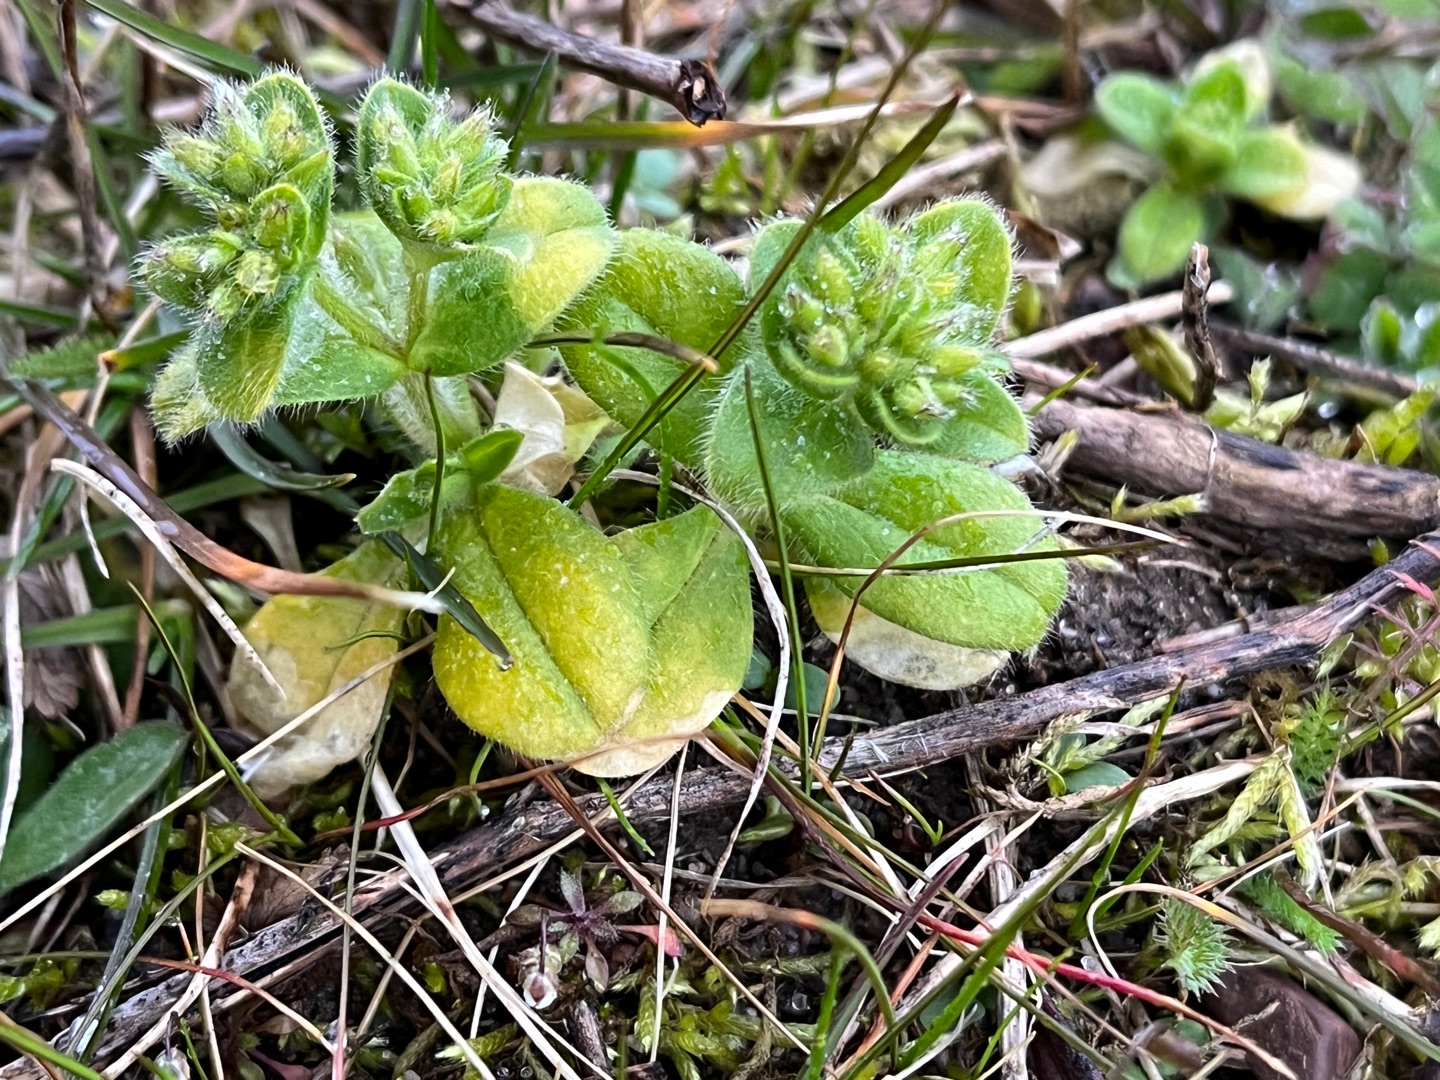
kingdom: Plantae
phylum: Tracheophyta
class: Magnoliopsida
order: Caryophyllales
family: Caryophyllaceae
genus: Cerastium
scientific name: Cerastium glomeratum
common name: Opret hønsetarm
